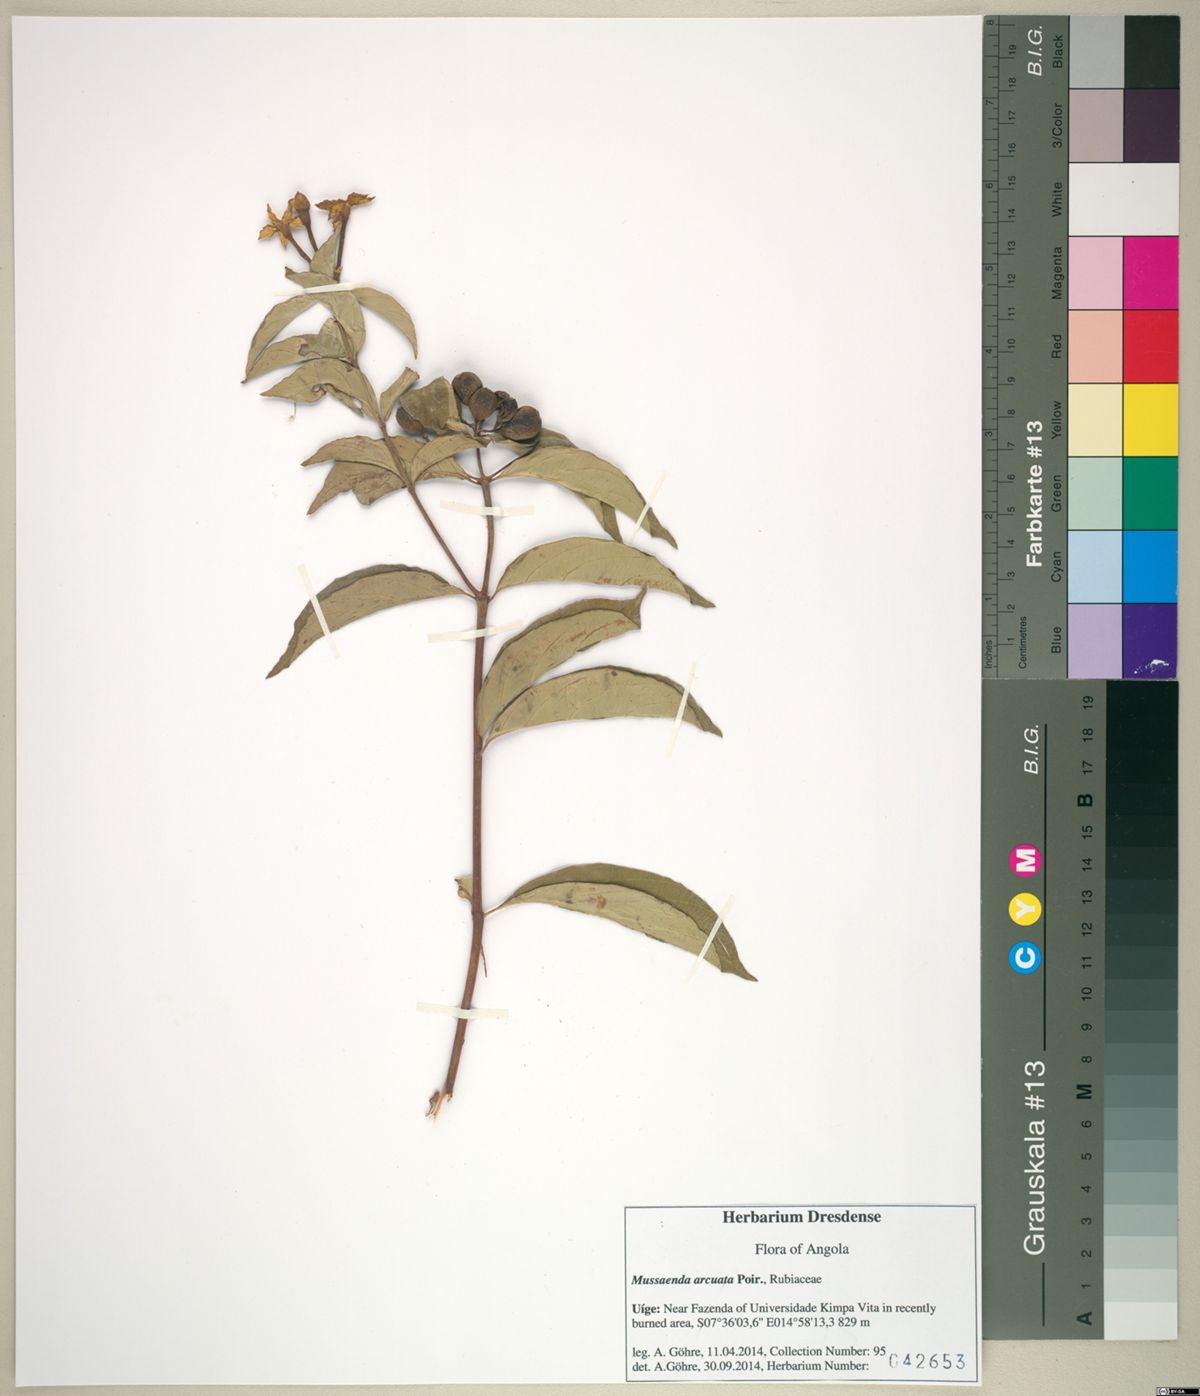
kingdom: Plantae
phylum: Tracheophyta
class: Magnoliopsida
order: Gentianales
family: Rubiaceae
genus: Mussaenda
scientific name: Mussaenda arcuata
